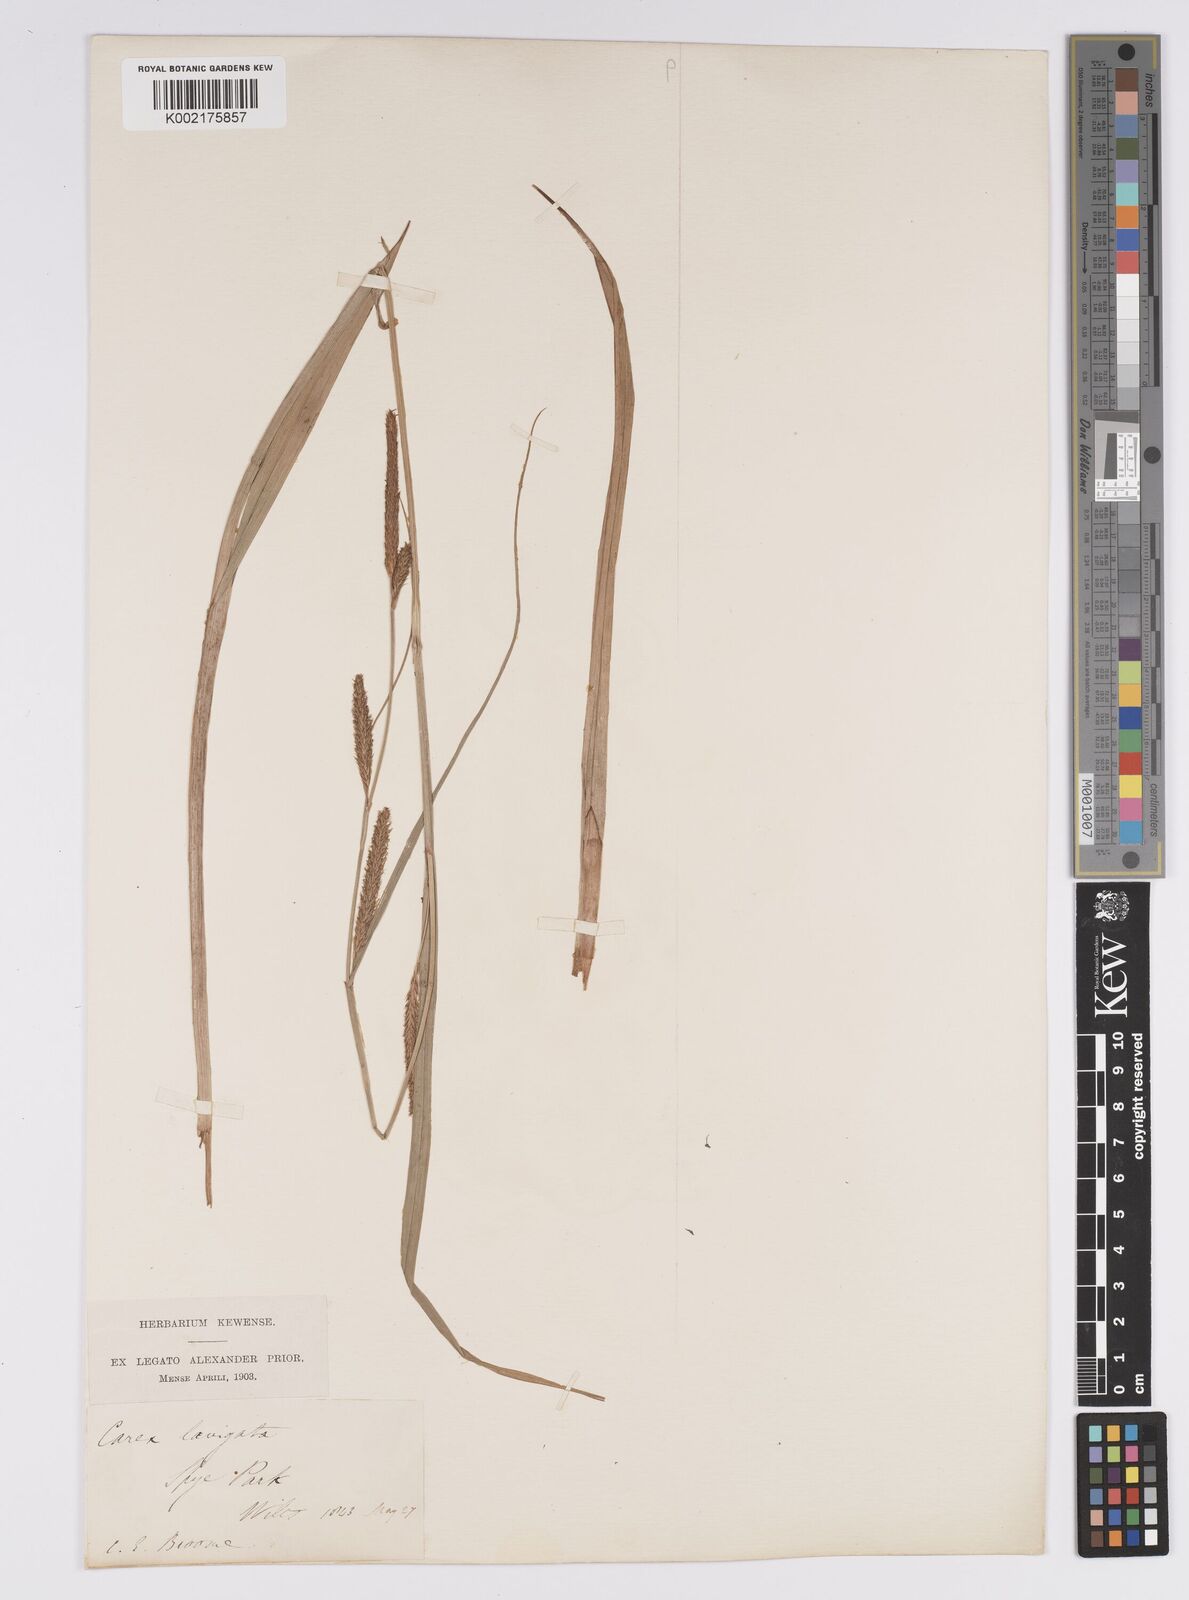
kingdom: Plantae
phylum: Tracheophyta
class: Liliopsida
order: Poales
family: Cyperaceae
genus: Carex
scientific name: Carex laevigata
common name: Smooth-stalked sedge
